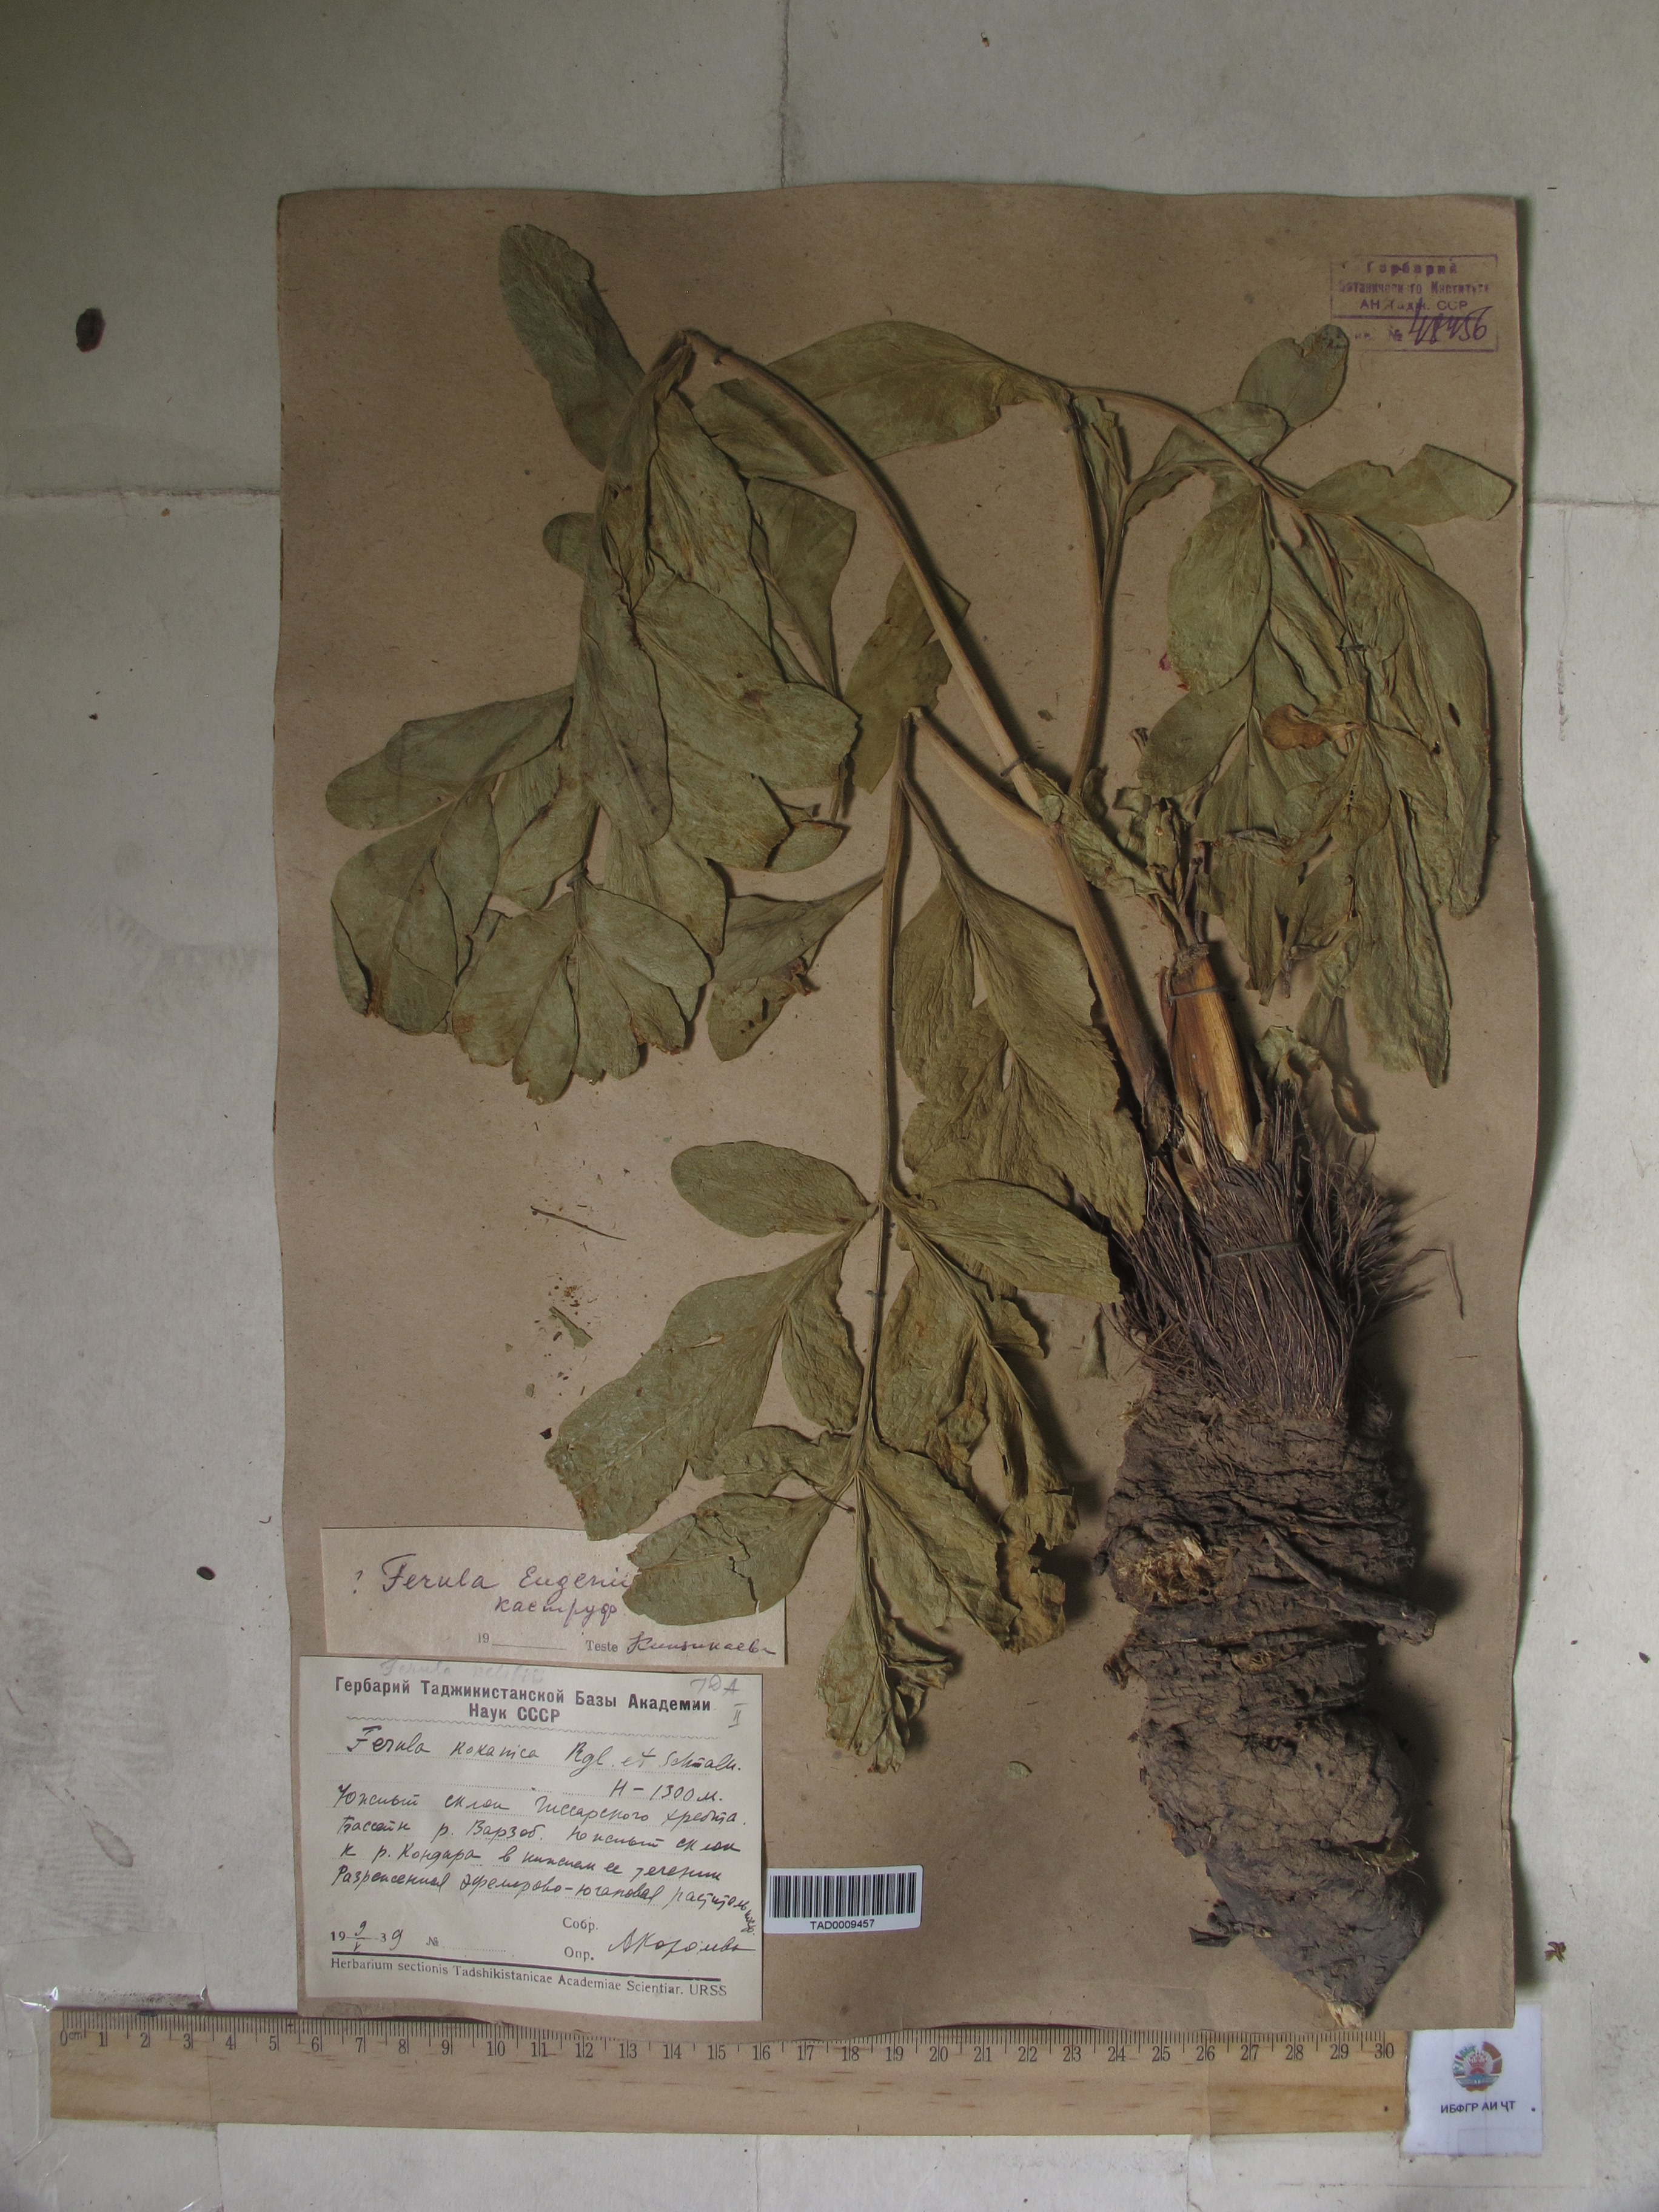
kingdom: Plantae
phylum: Tracheophyta
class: Magnoliopsida
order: Apiales
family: Apiaceae
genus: Ferula
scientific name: Ferula violacea
